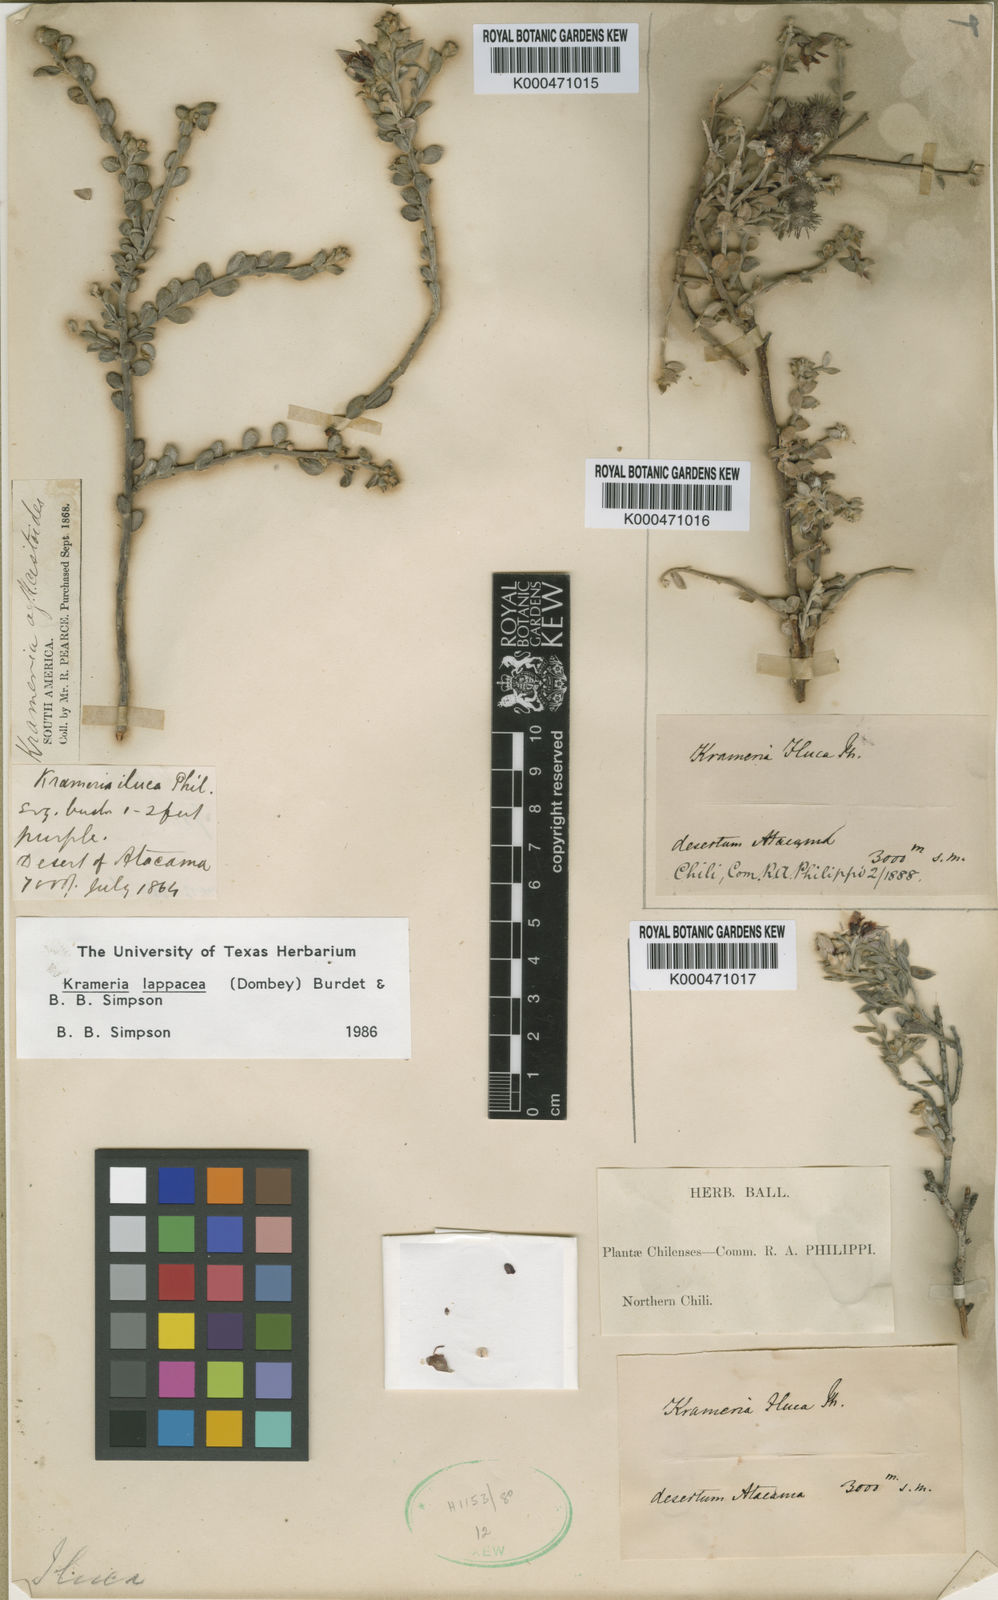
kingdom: Plantae
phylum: Tracheophyta
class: Magnoliopsida
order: Zygophyllales
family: Krameriaceae
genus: Krameria
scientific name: Krameria lappacea
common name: Rhatany
